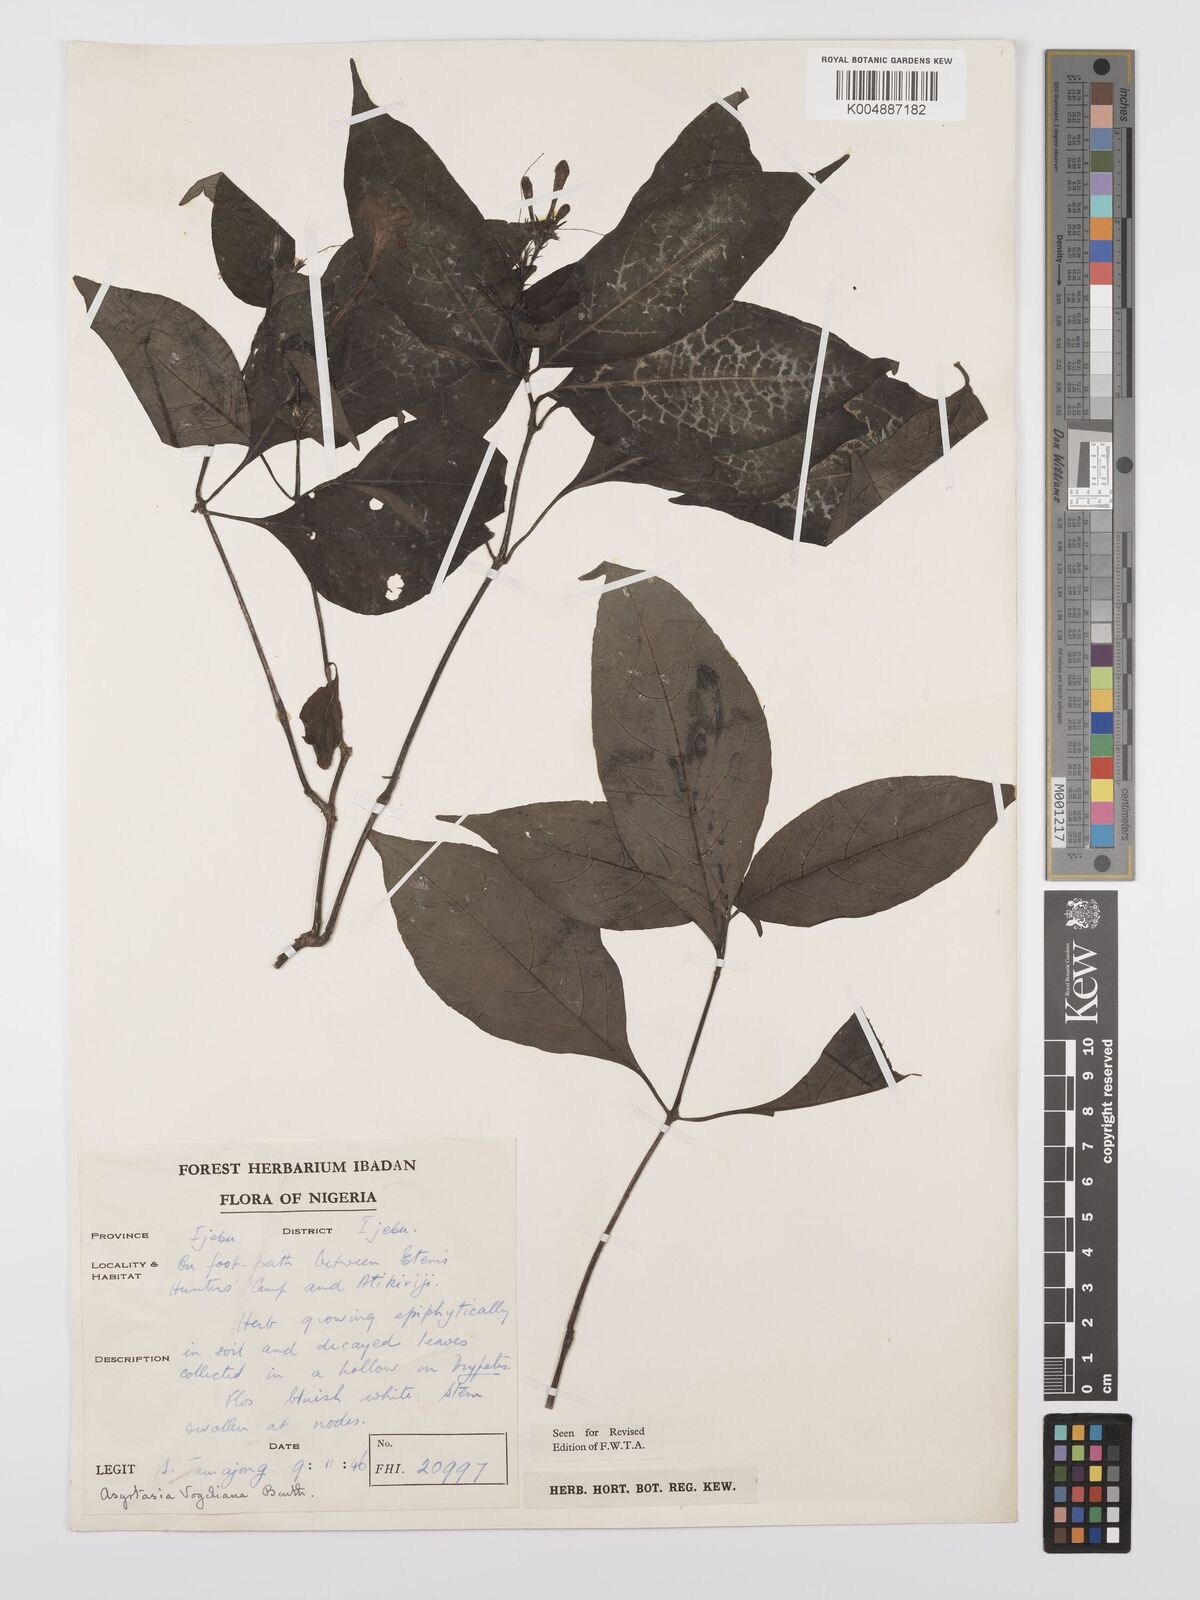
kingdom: Plantae
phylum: Tracheophyta
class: Magnoliopsida
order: Lamiales
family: Acanthaceae
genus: Asystasia
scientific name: Asystasia vogeliana
